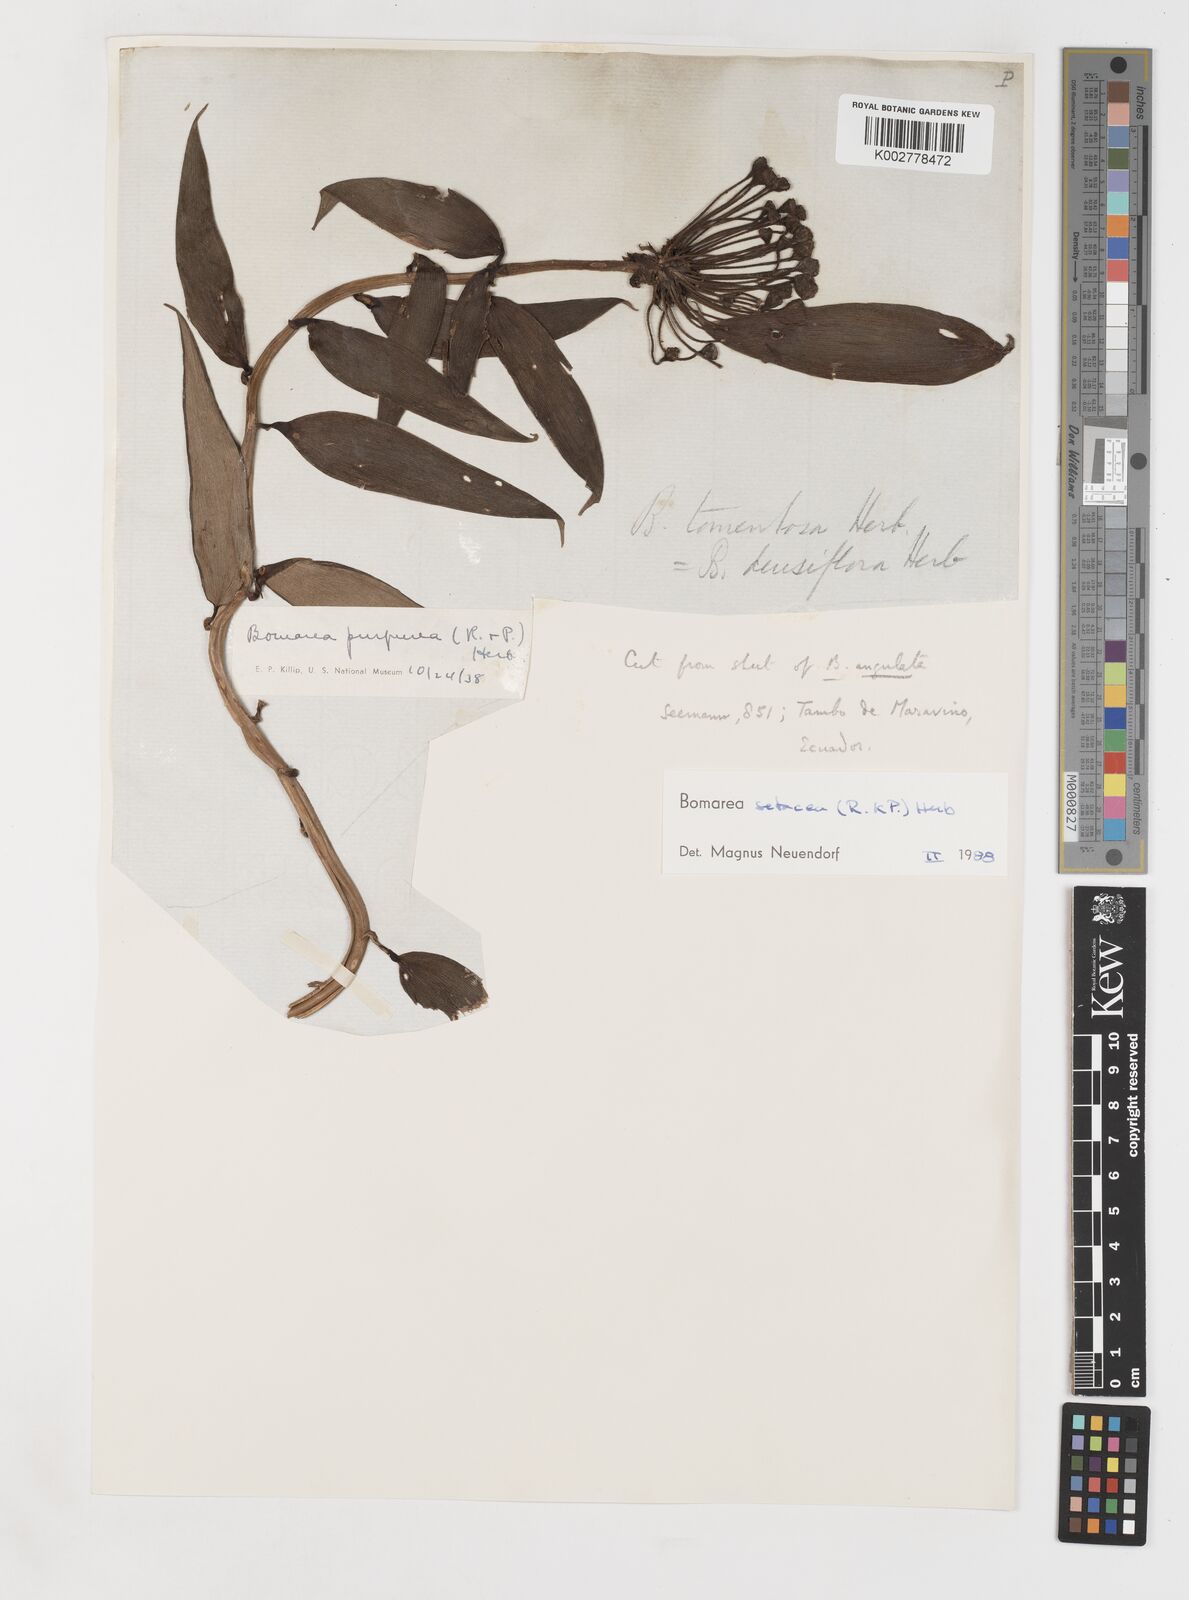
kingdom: Plantae
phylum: Tracheophyta
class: Liliopsida
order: Liliales
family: Alstroemeriaceae
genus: Bomarea
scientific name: Bomarea setacea
